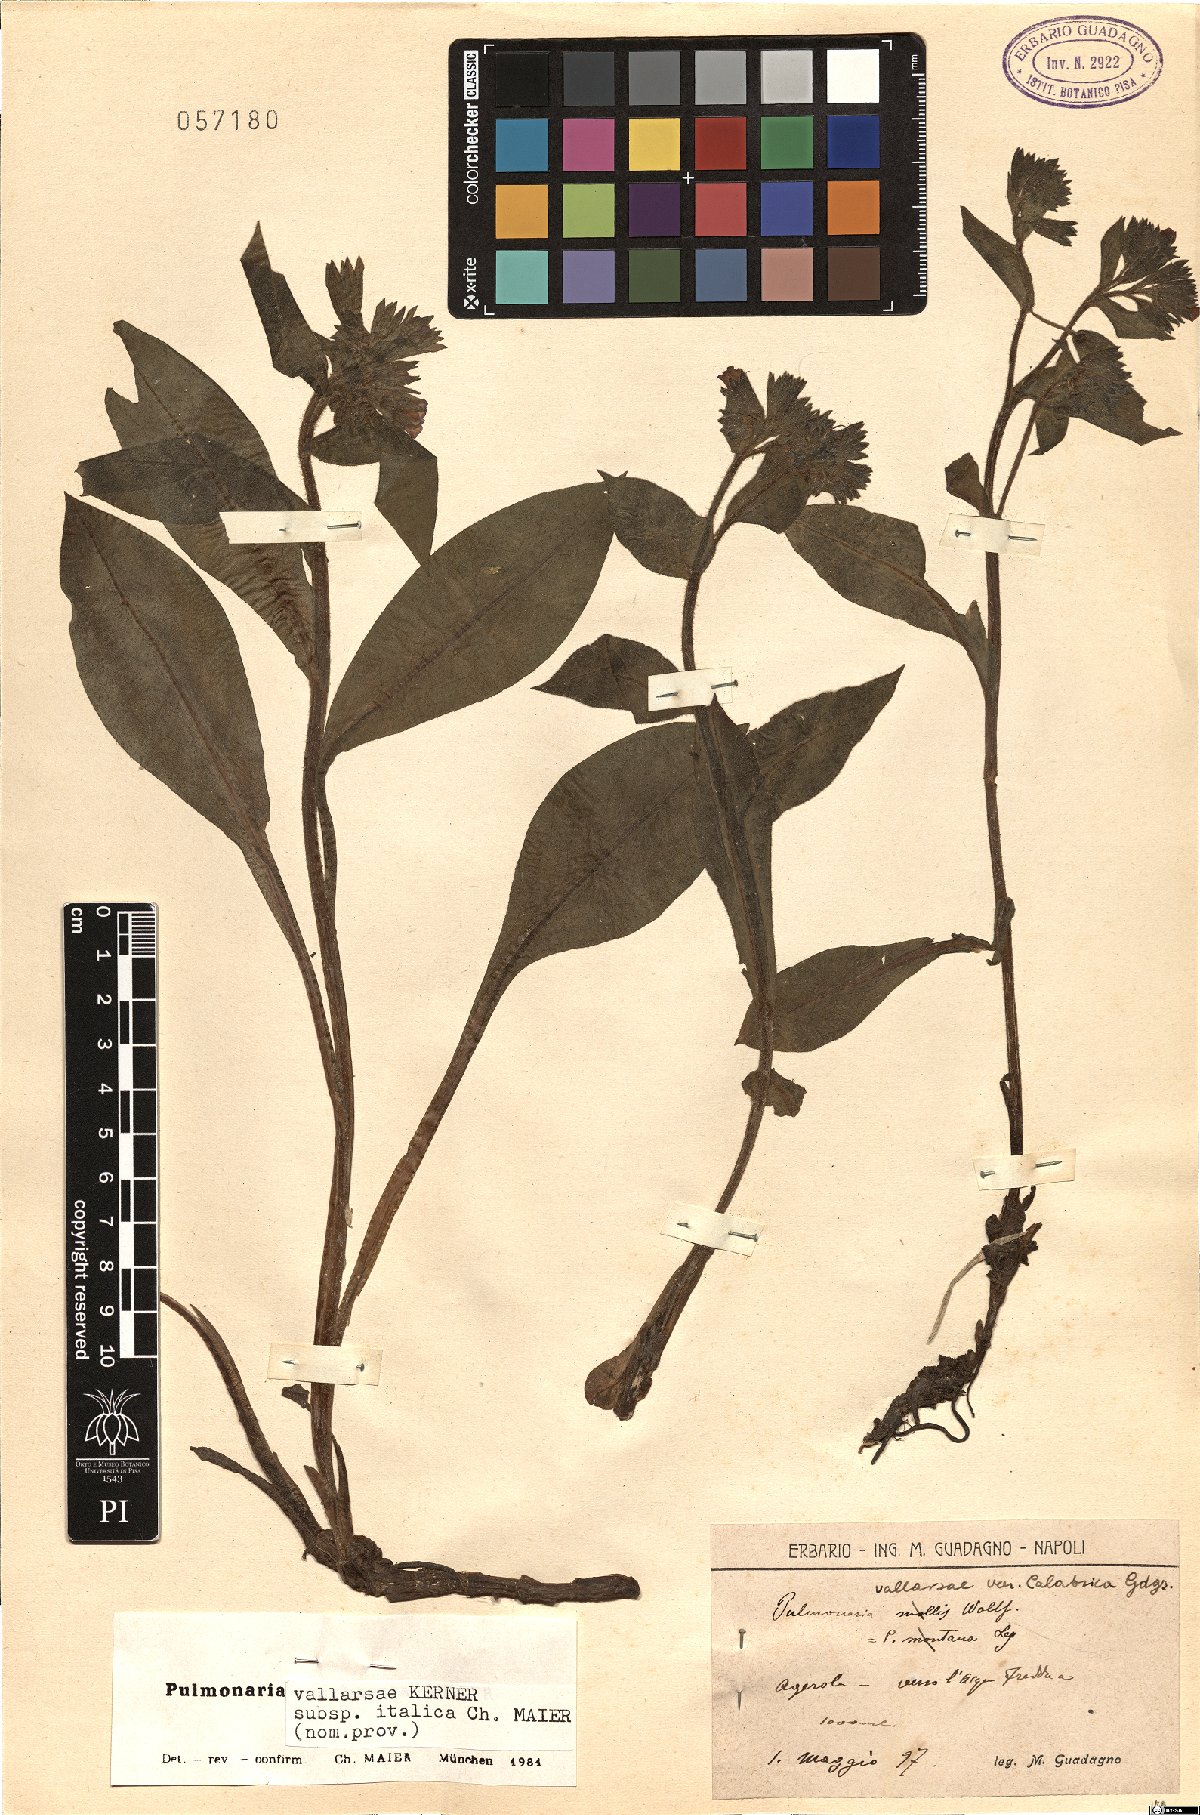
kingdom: Plantae
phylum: Tracheophyta
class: Magnoliopsida
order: Boraginales
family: Boraginaceae
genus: Pulmonaria
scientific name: Pulmonaria hirta
